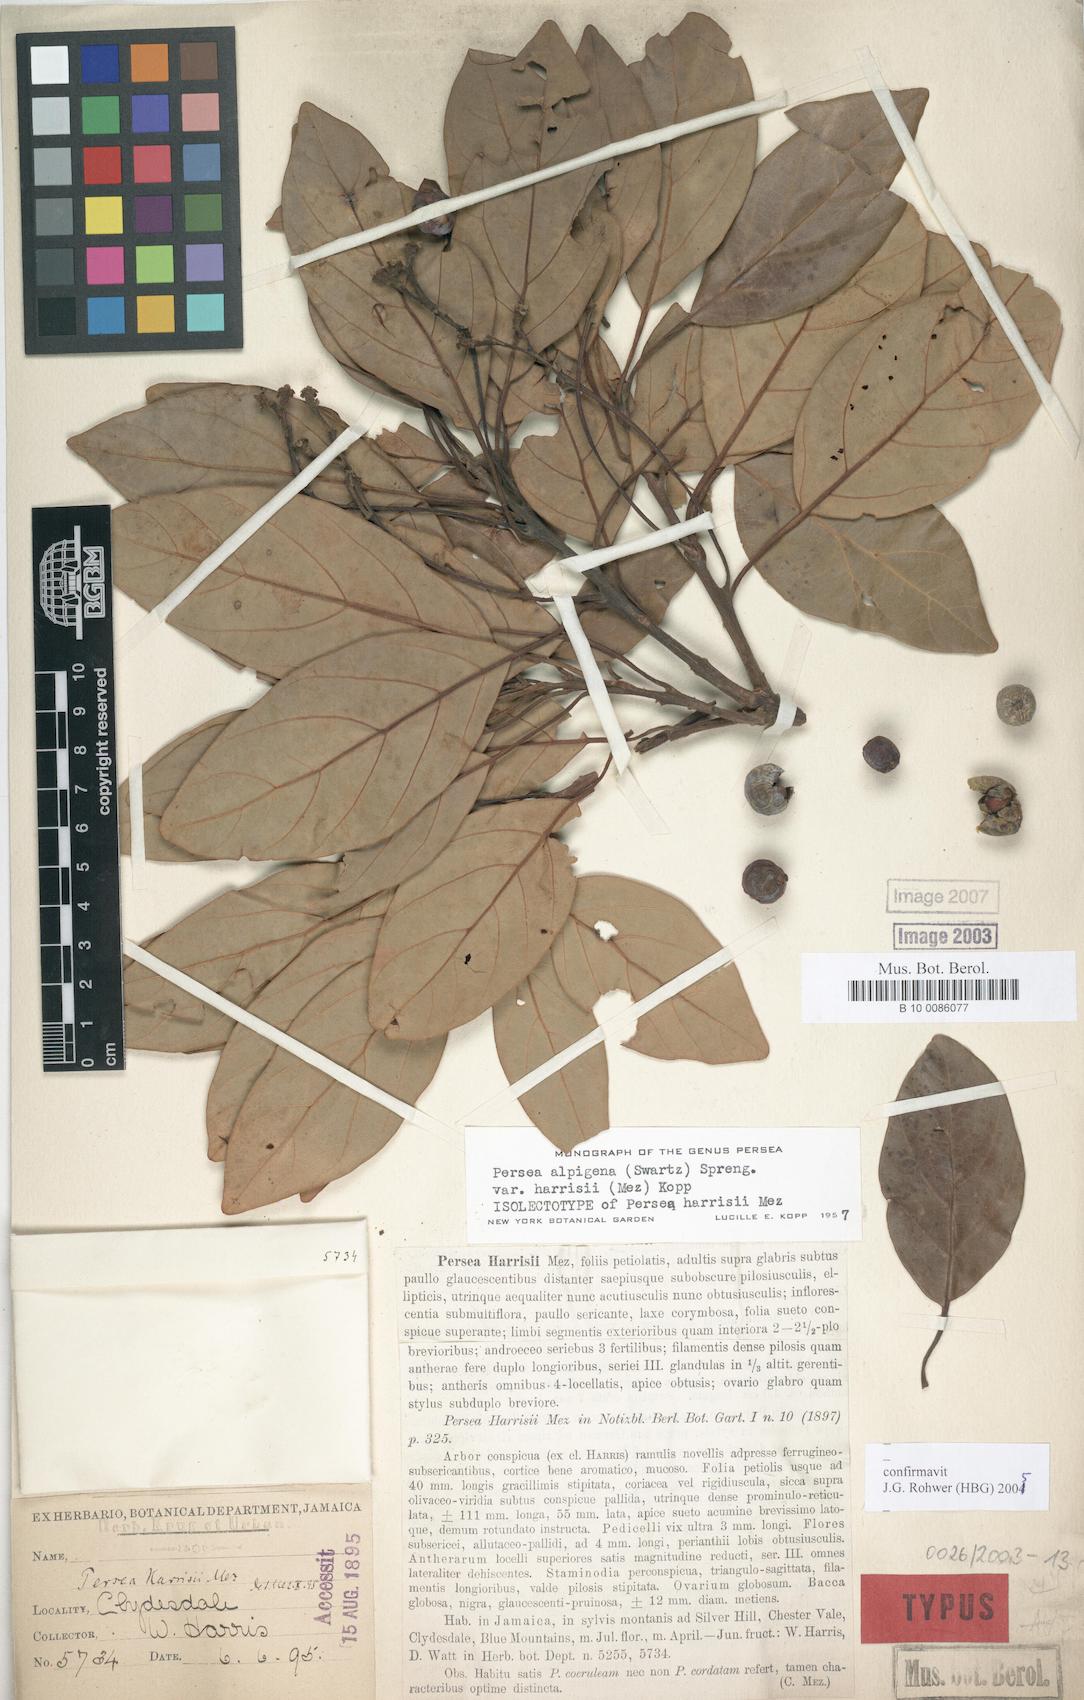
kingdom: Plantae
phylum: Tracheophyta
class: Magnoliopsida
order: Laurales
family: Lauraceae
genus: Persea
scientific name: Persea alpigena
